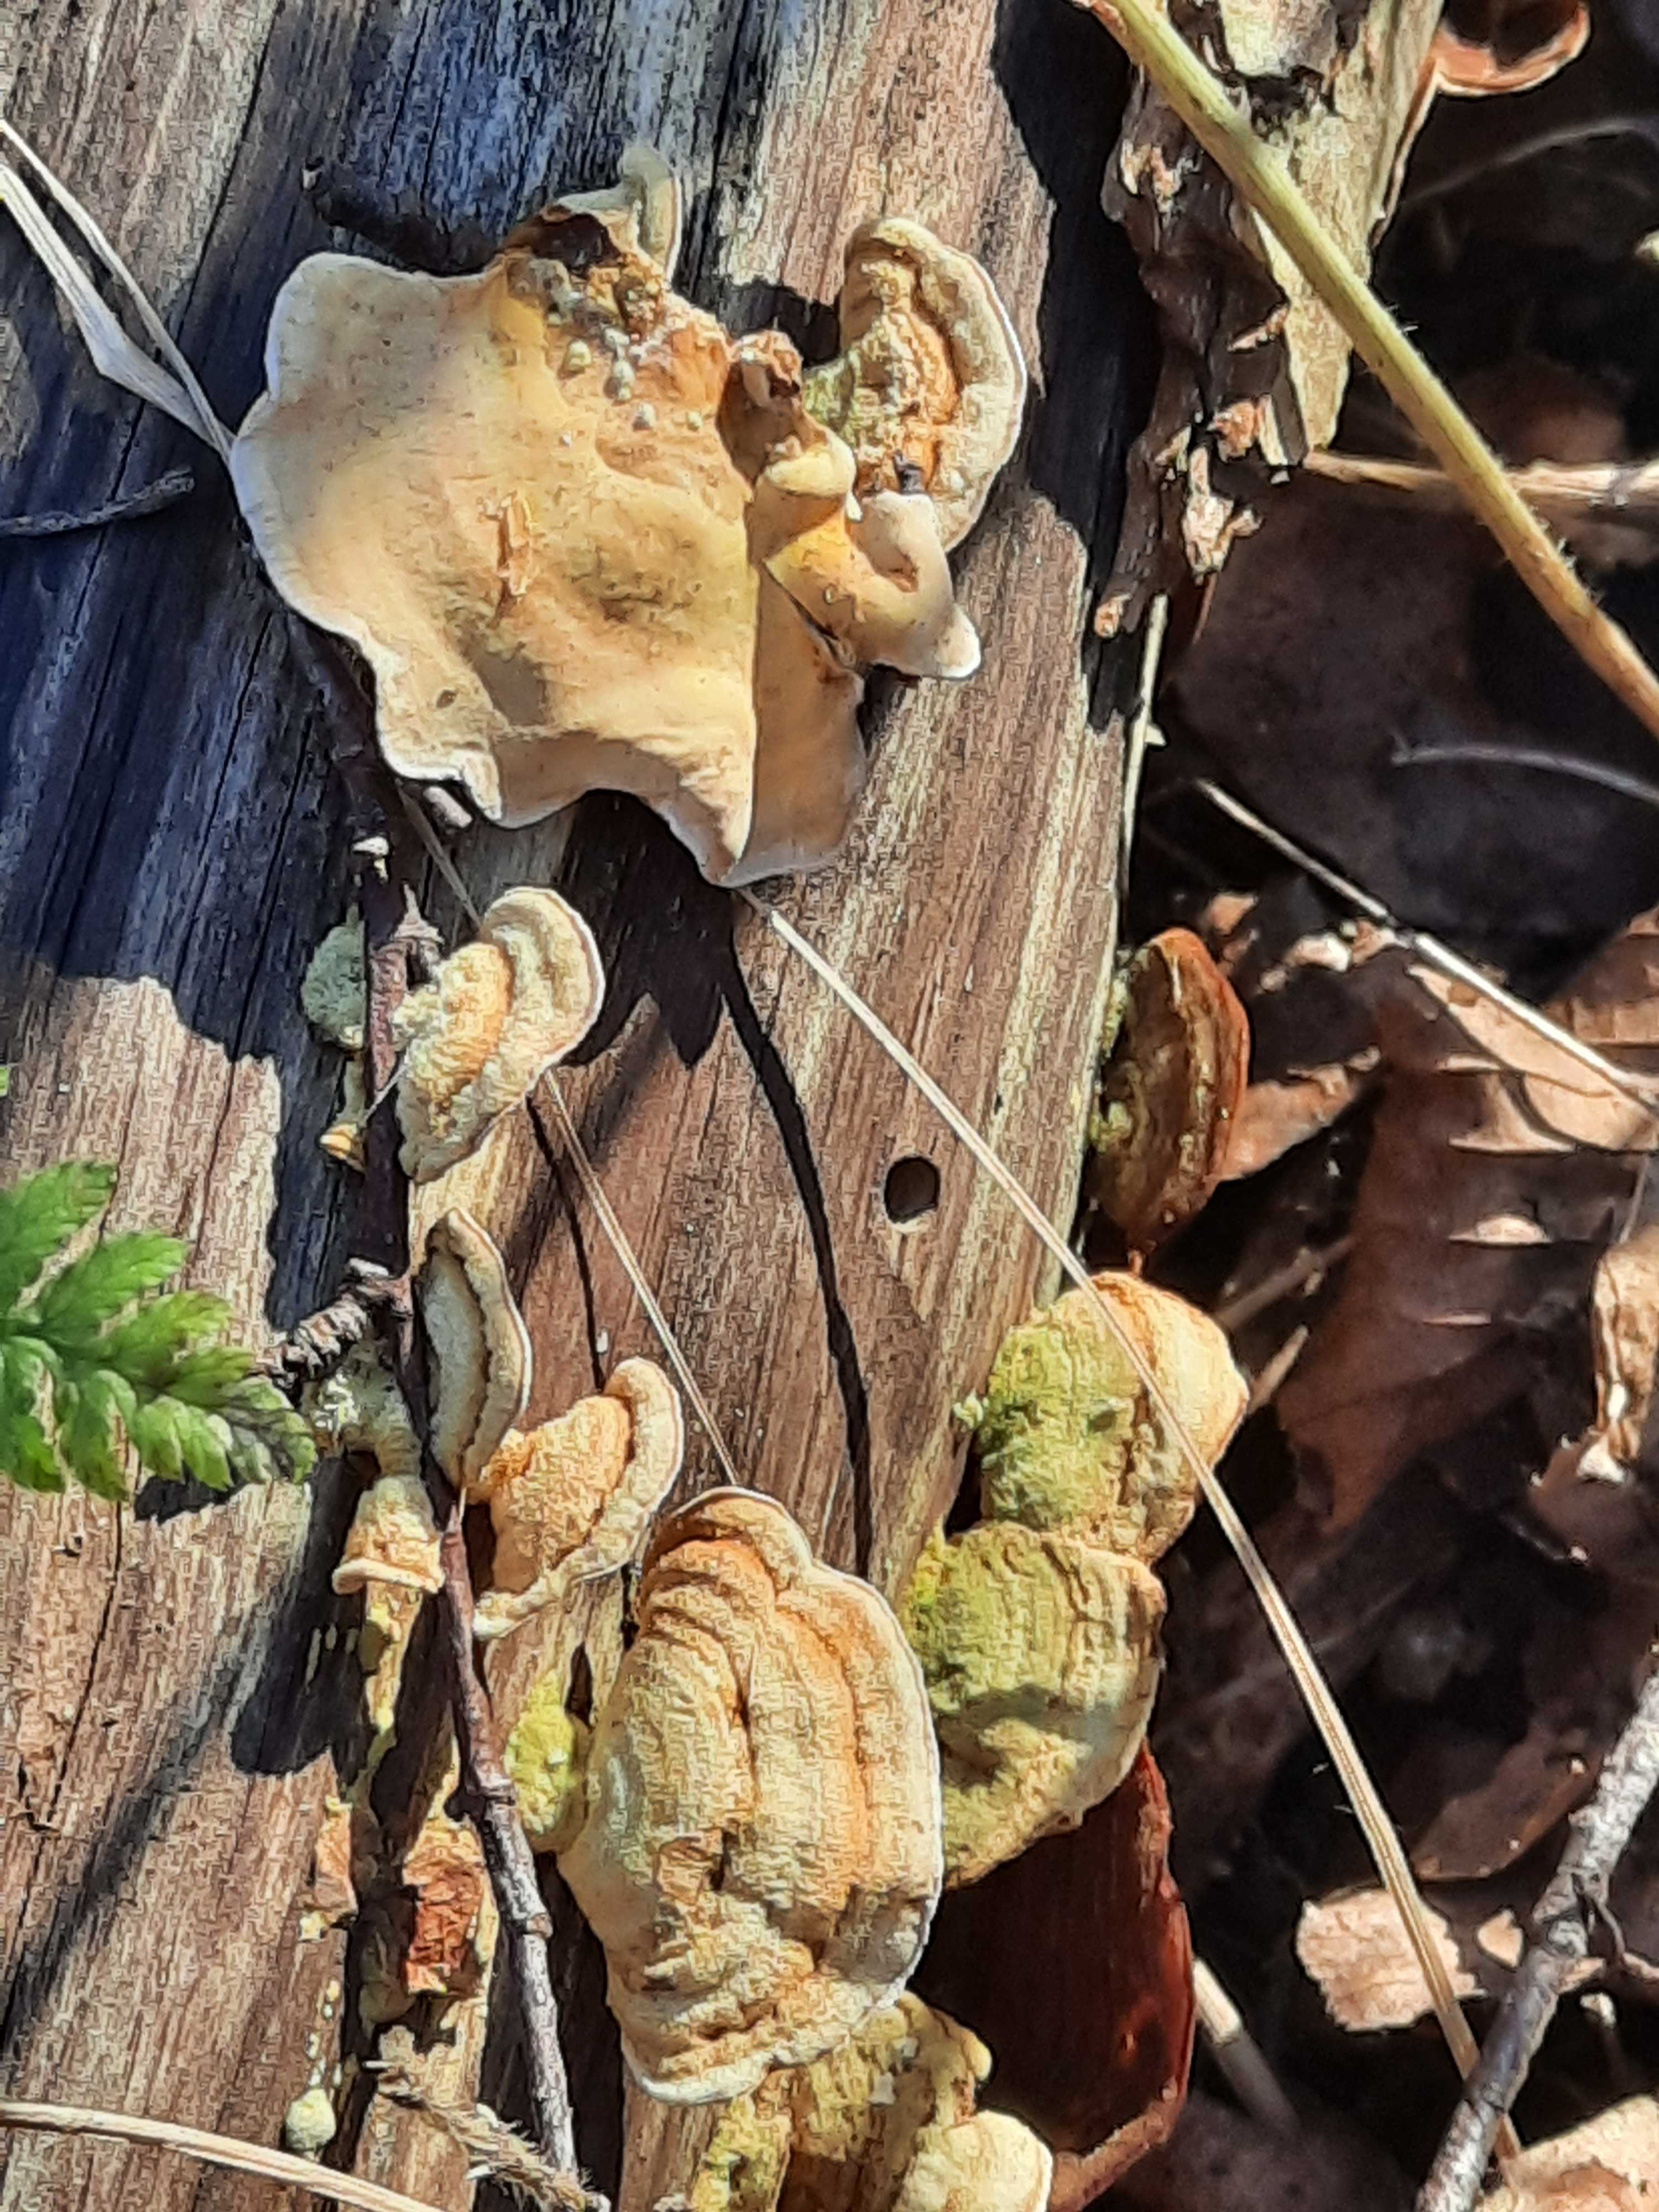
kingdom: Fungi
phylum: Basidiomycota
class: Agaricomycetes
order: Russulales
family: Stereaceae
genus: Stereum
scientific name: Stereum subtomentosum
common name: smuk lædersvamp
